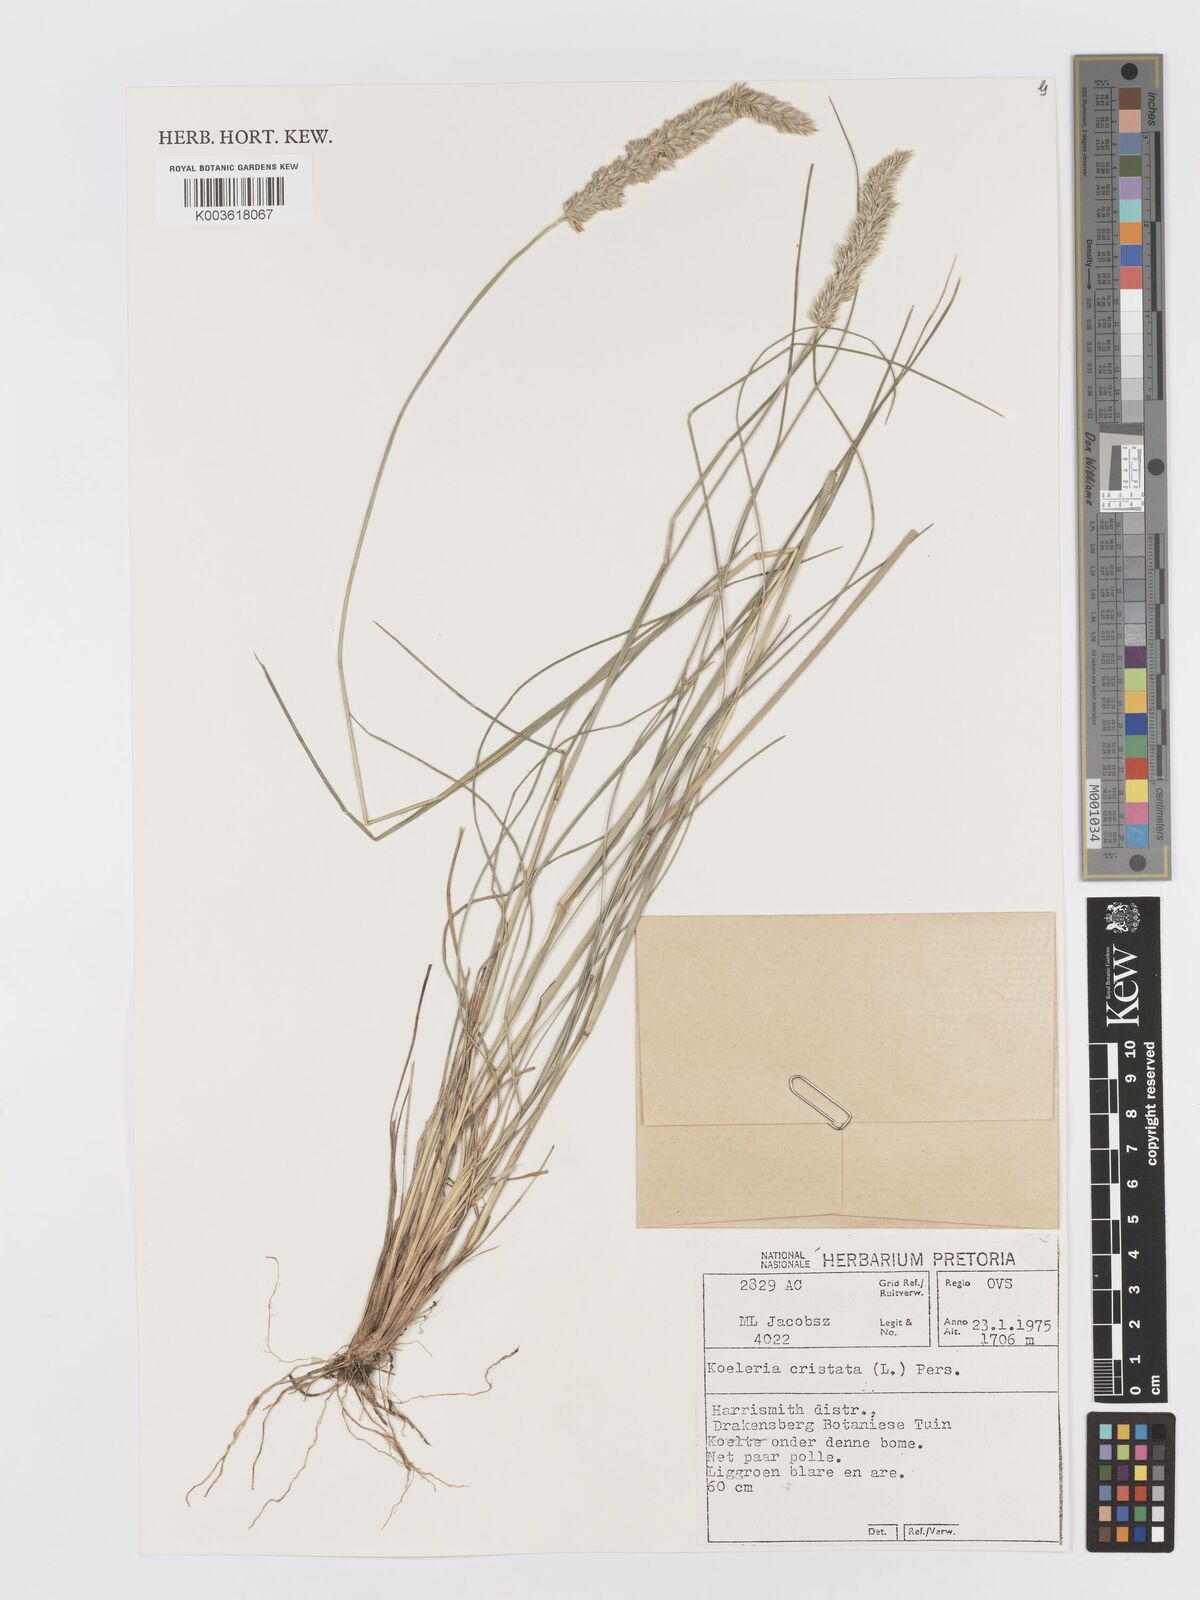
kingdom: Plantae
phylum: Tracheophyta
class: Liliopsida
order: Poales
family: Poaceae
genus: Koeleria
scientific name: Koeleria capensis
